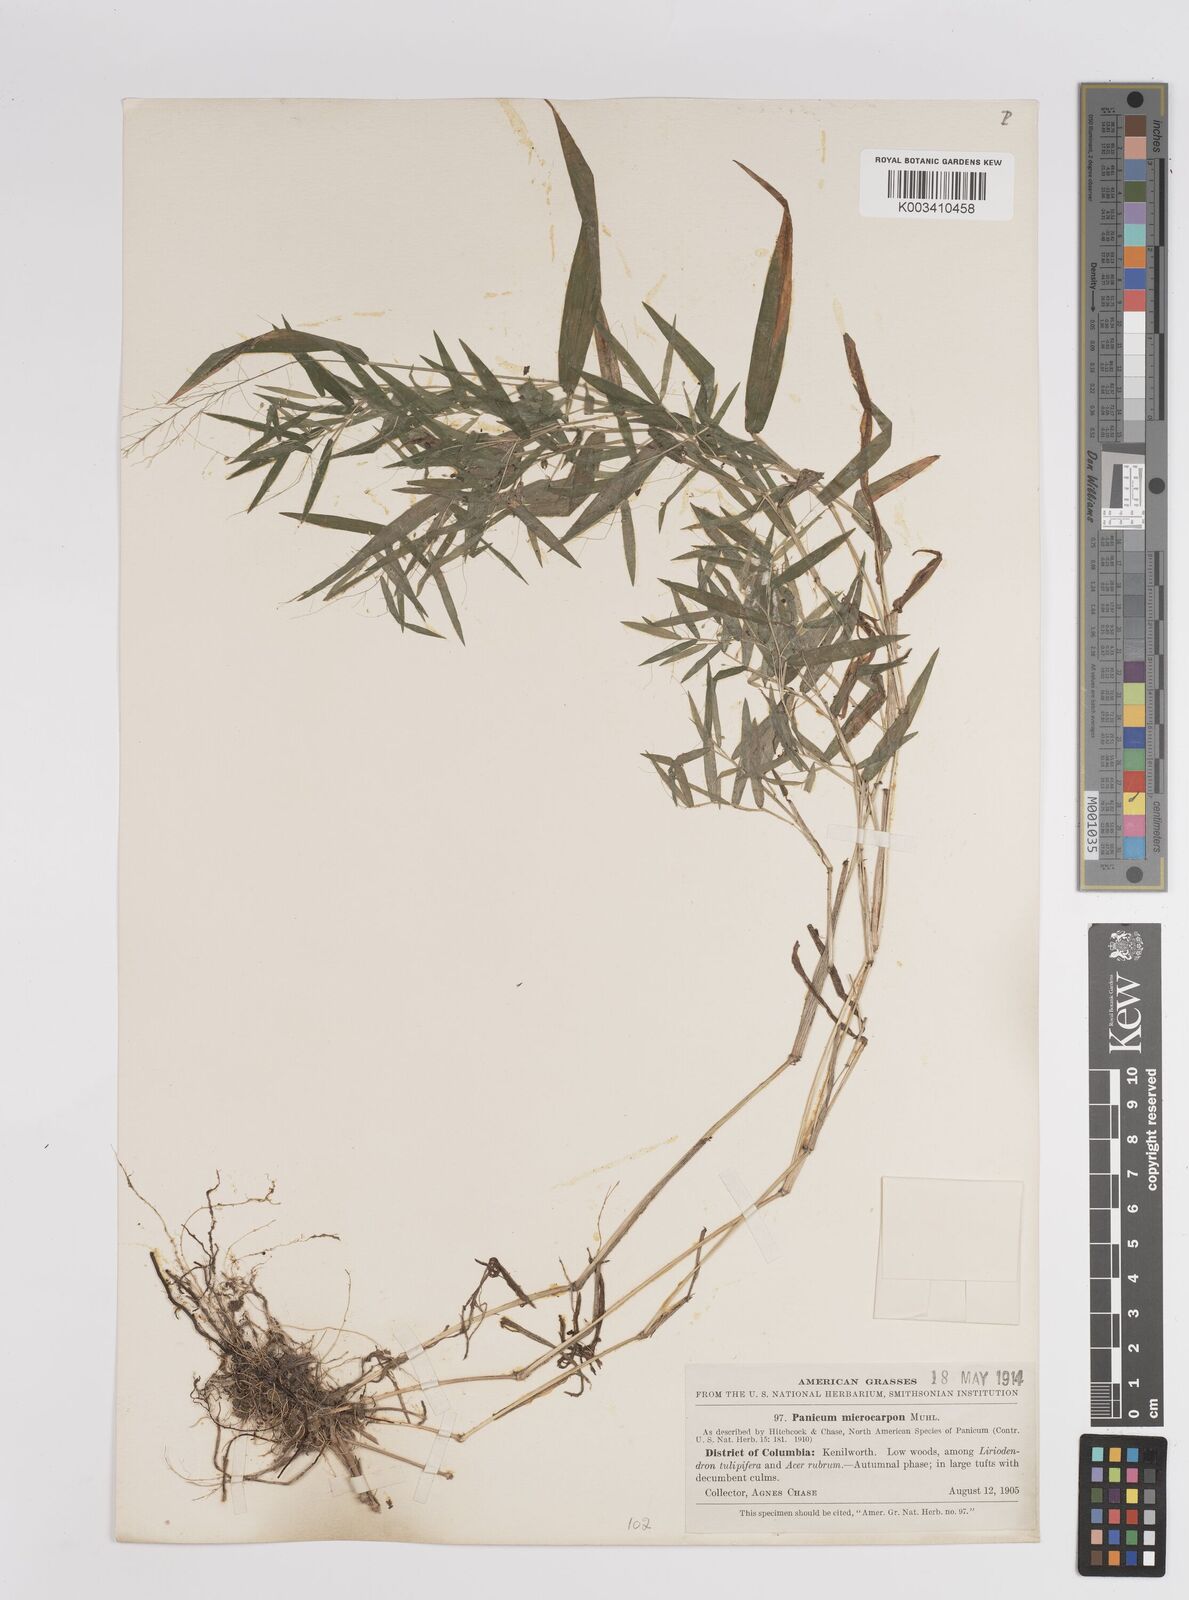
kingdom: Plantae
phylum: Tracheophyta
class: Liliopsida
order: Poales
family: Poaceae
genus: Dichanthelium
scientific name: Dichanthelium polyanthes
